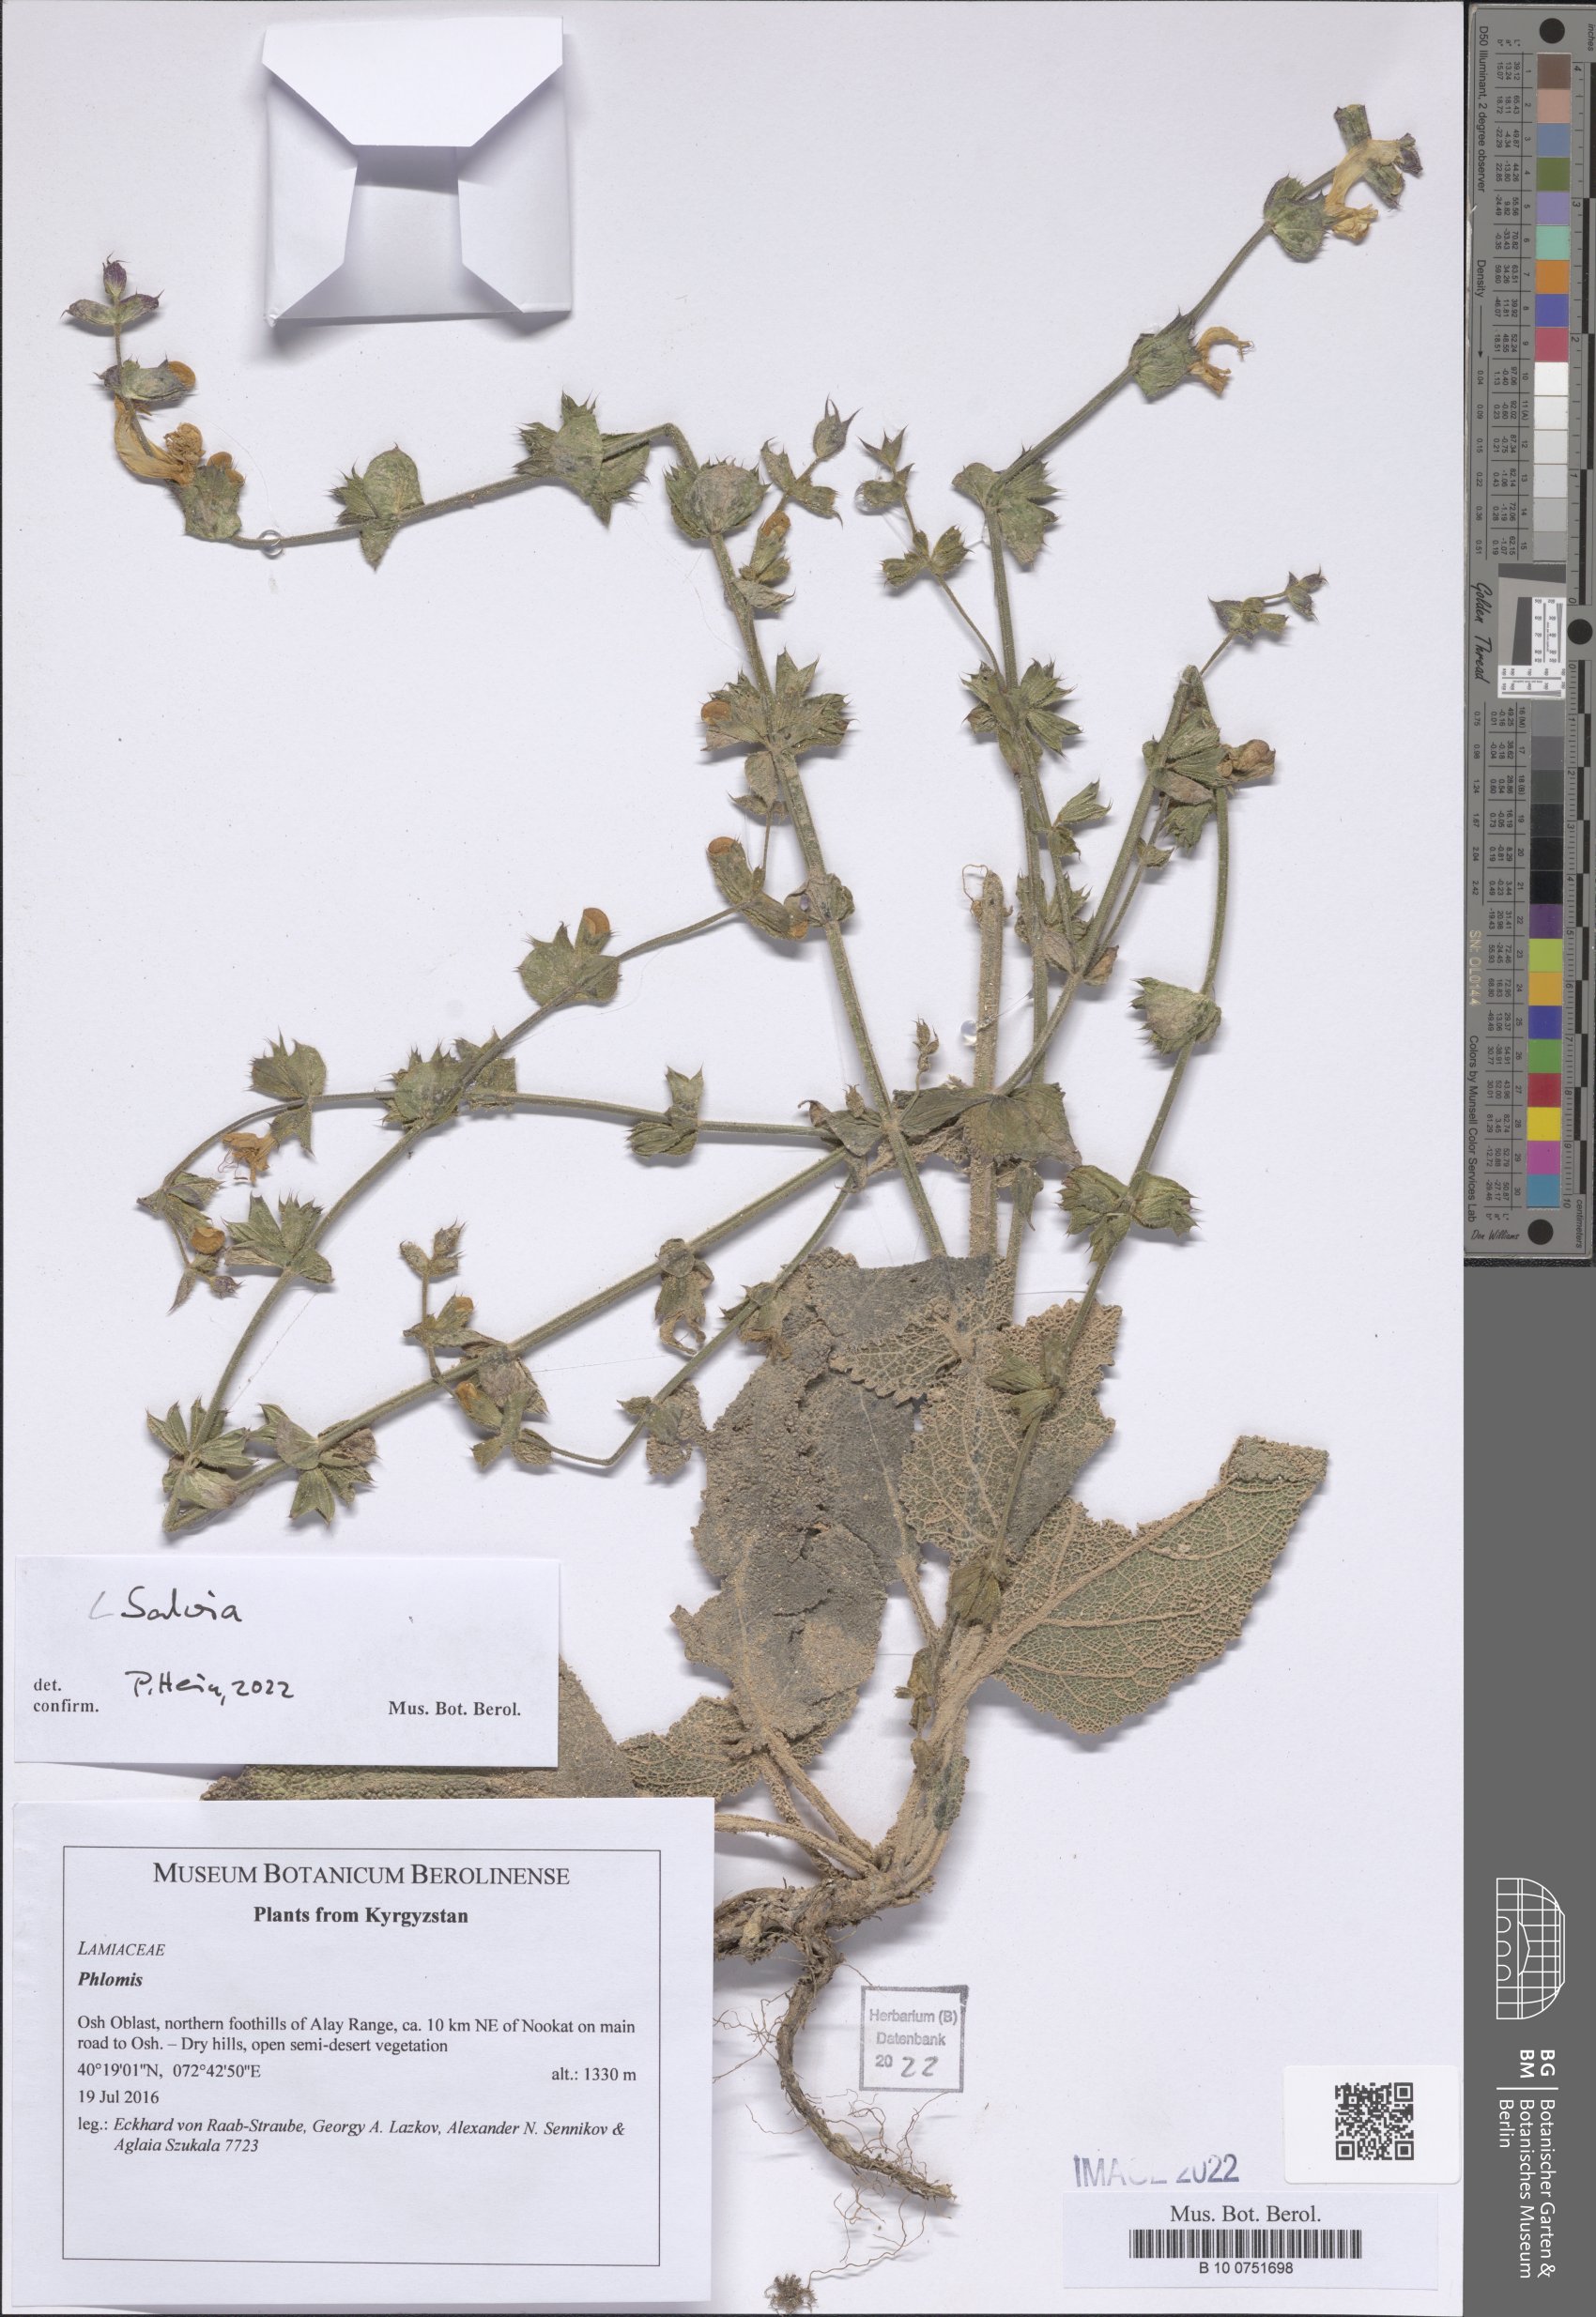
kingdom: Plantae
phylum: Tracheophyta
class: Magnoliopsida
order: Lamiales
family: Lamiaceae
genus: Salvia
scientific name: Salvia
